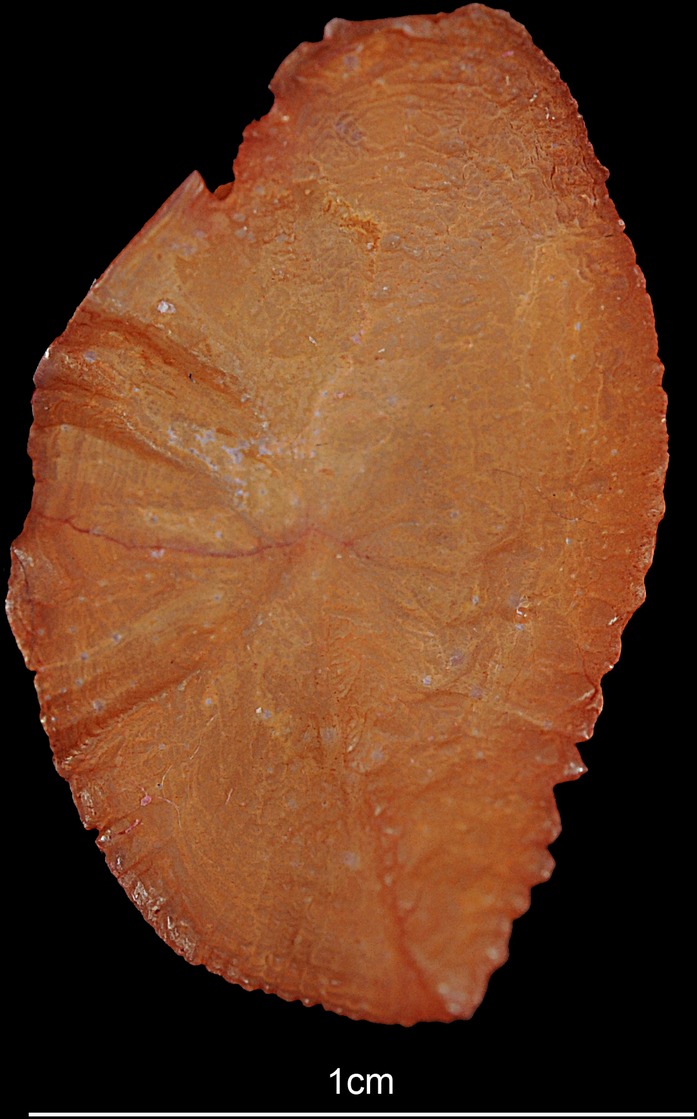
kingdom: Animalia
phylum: Chordata
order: Perciformes
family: Lutjanidae
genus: Lutjanus
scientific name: Lutjanus rivulatus
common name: Blubberlip snapper
